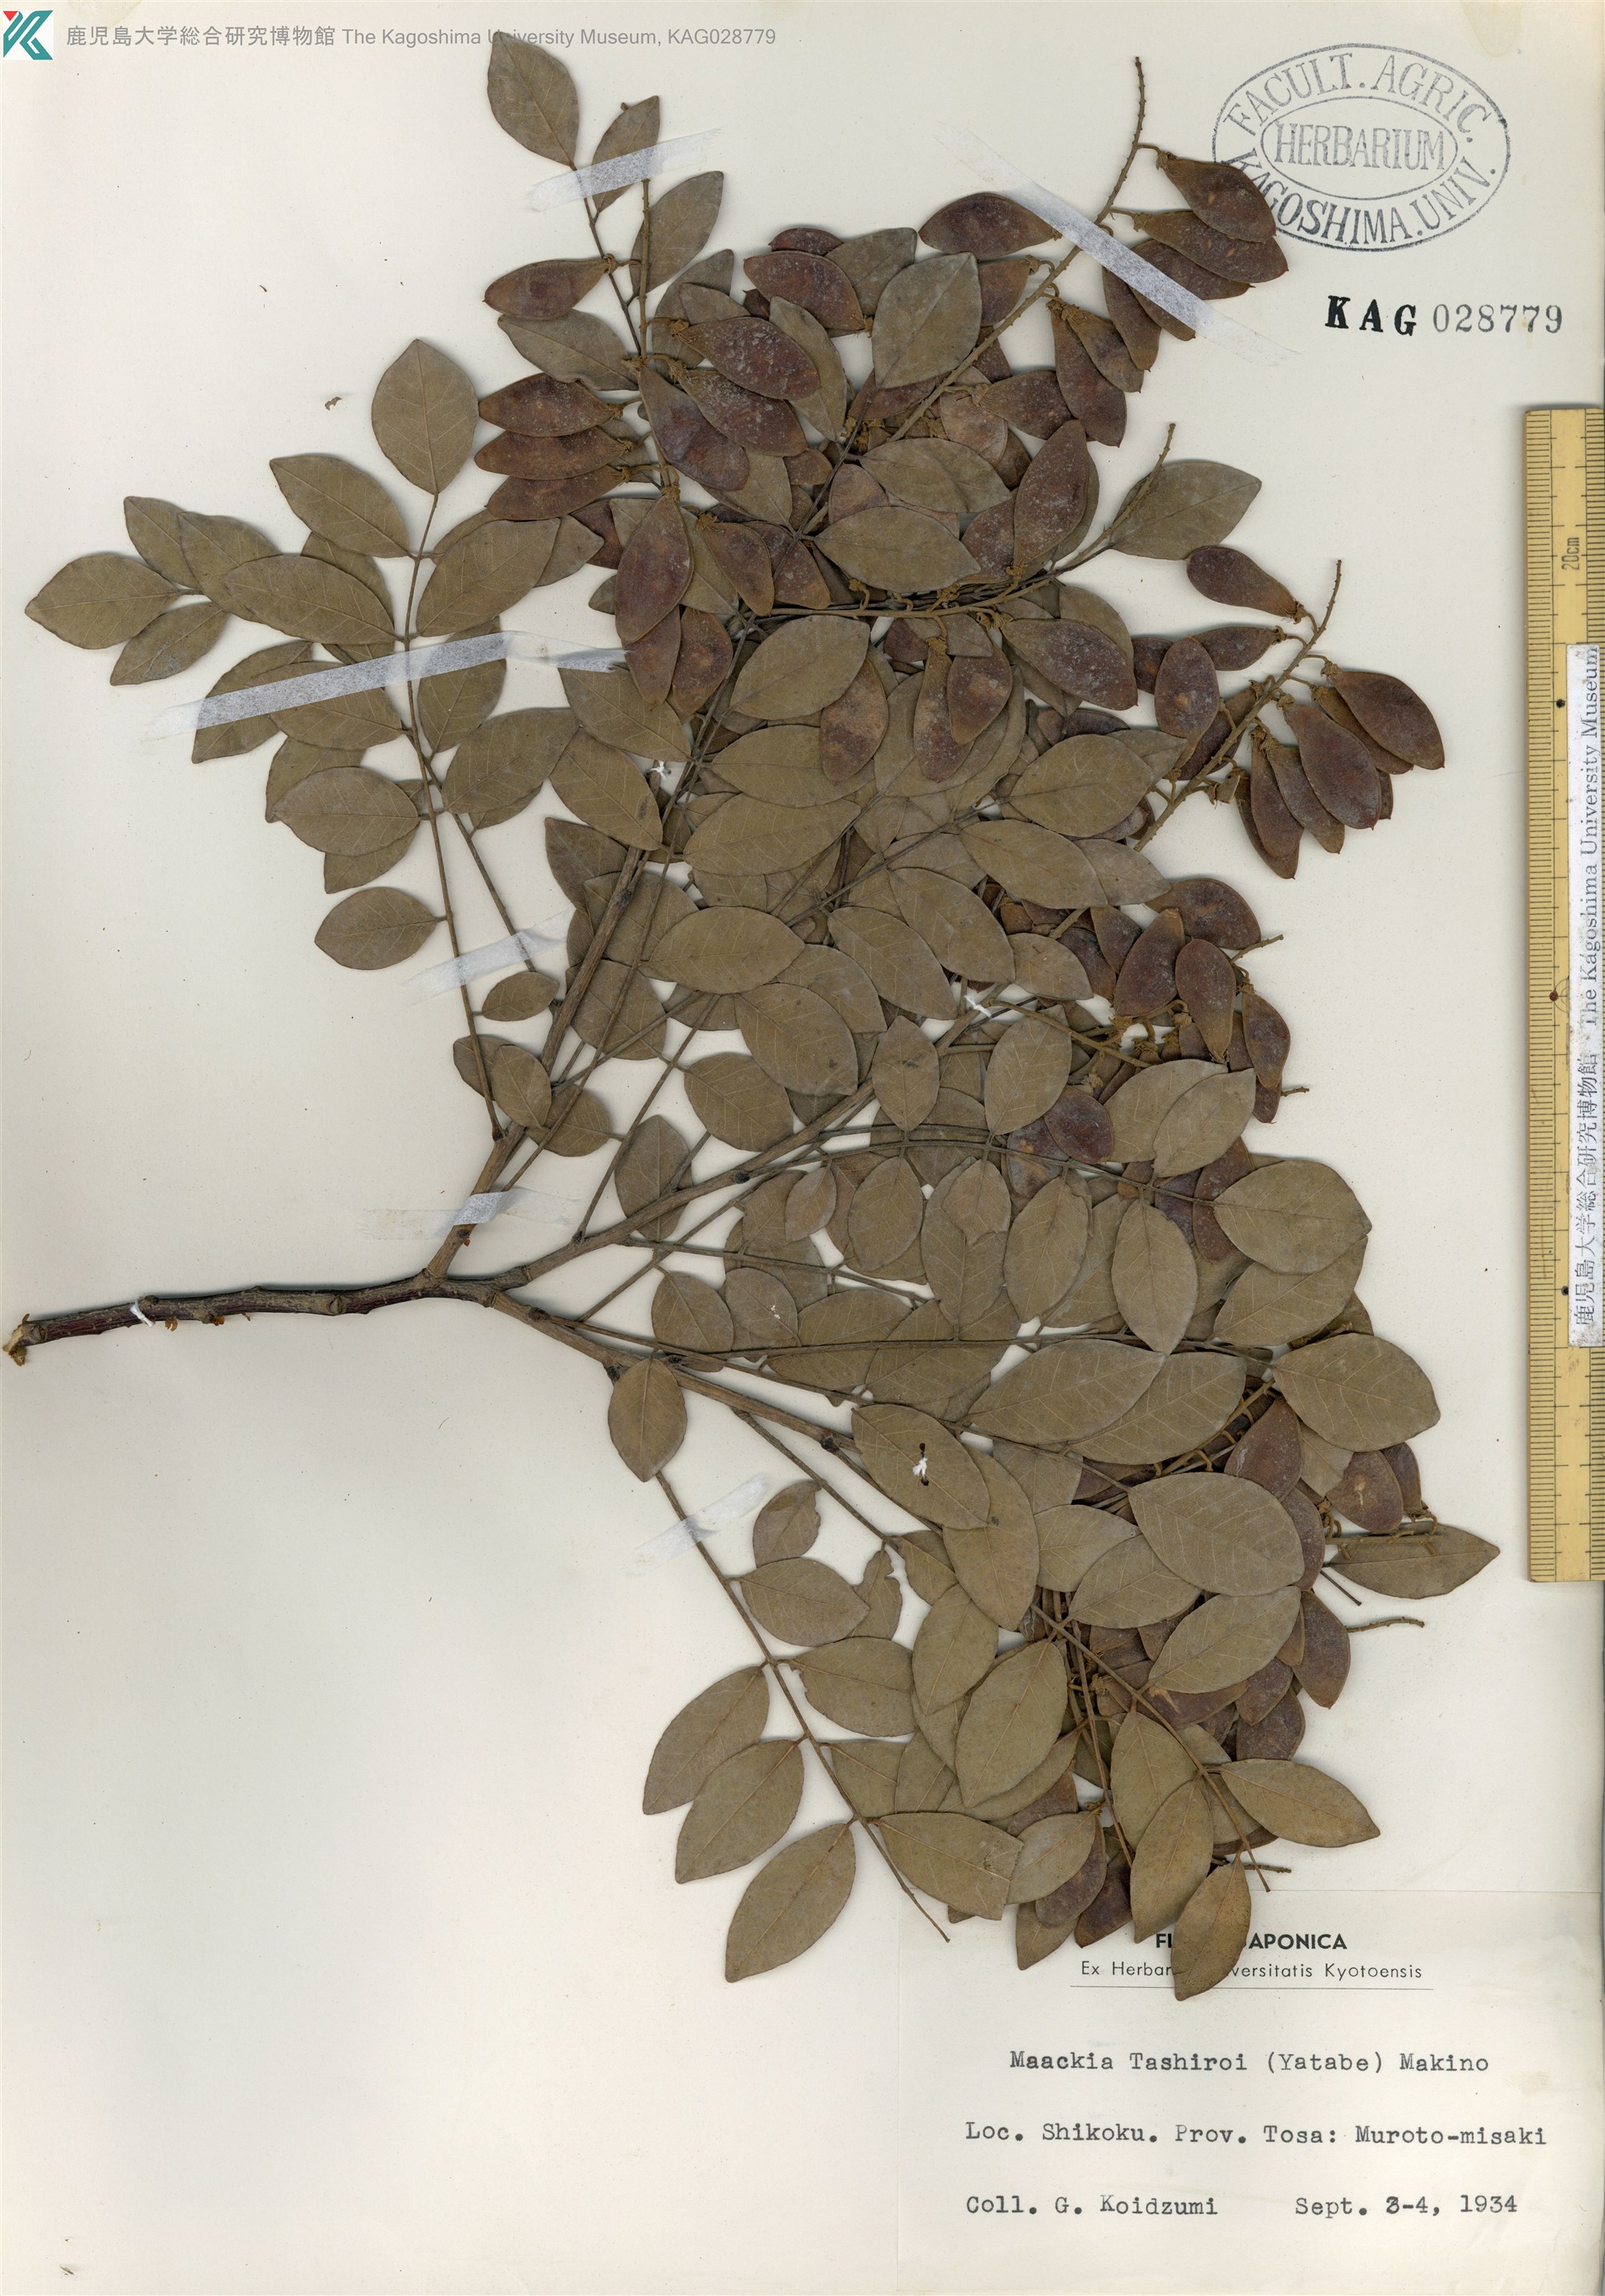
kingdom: Plantae
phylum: Tracheophyta
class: Magnoliopsida
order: Fabales
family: Fabaceae
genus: Maackia
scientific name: Maackia tashiroi
